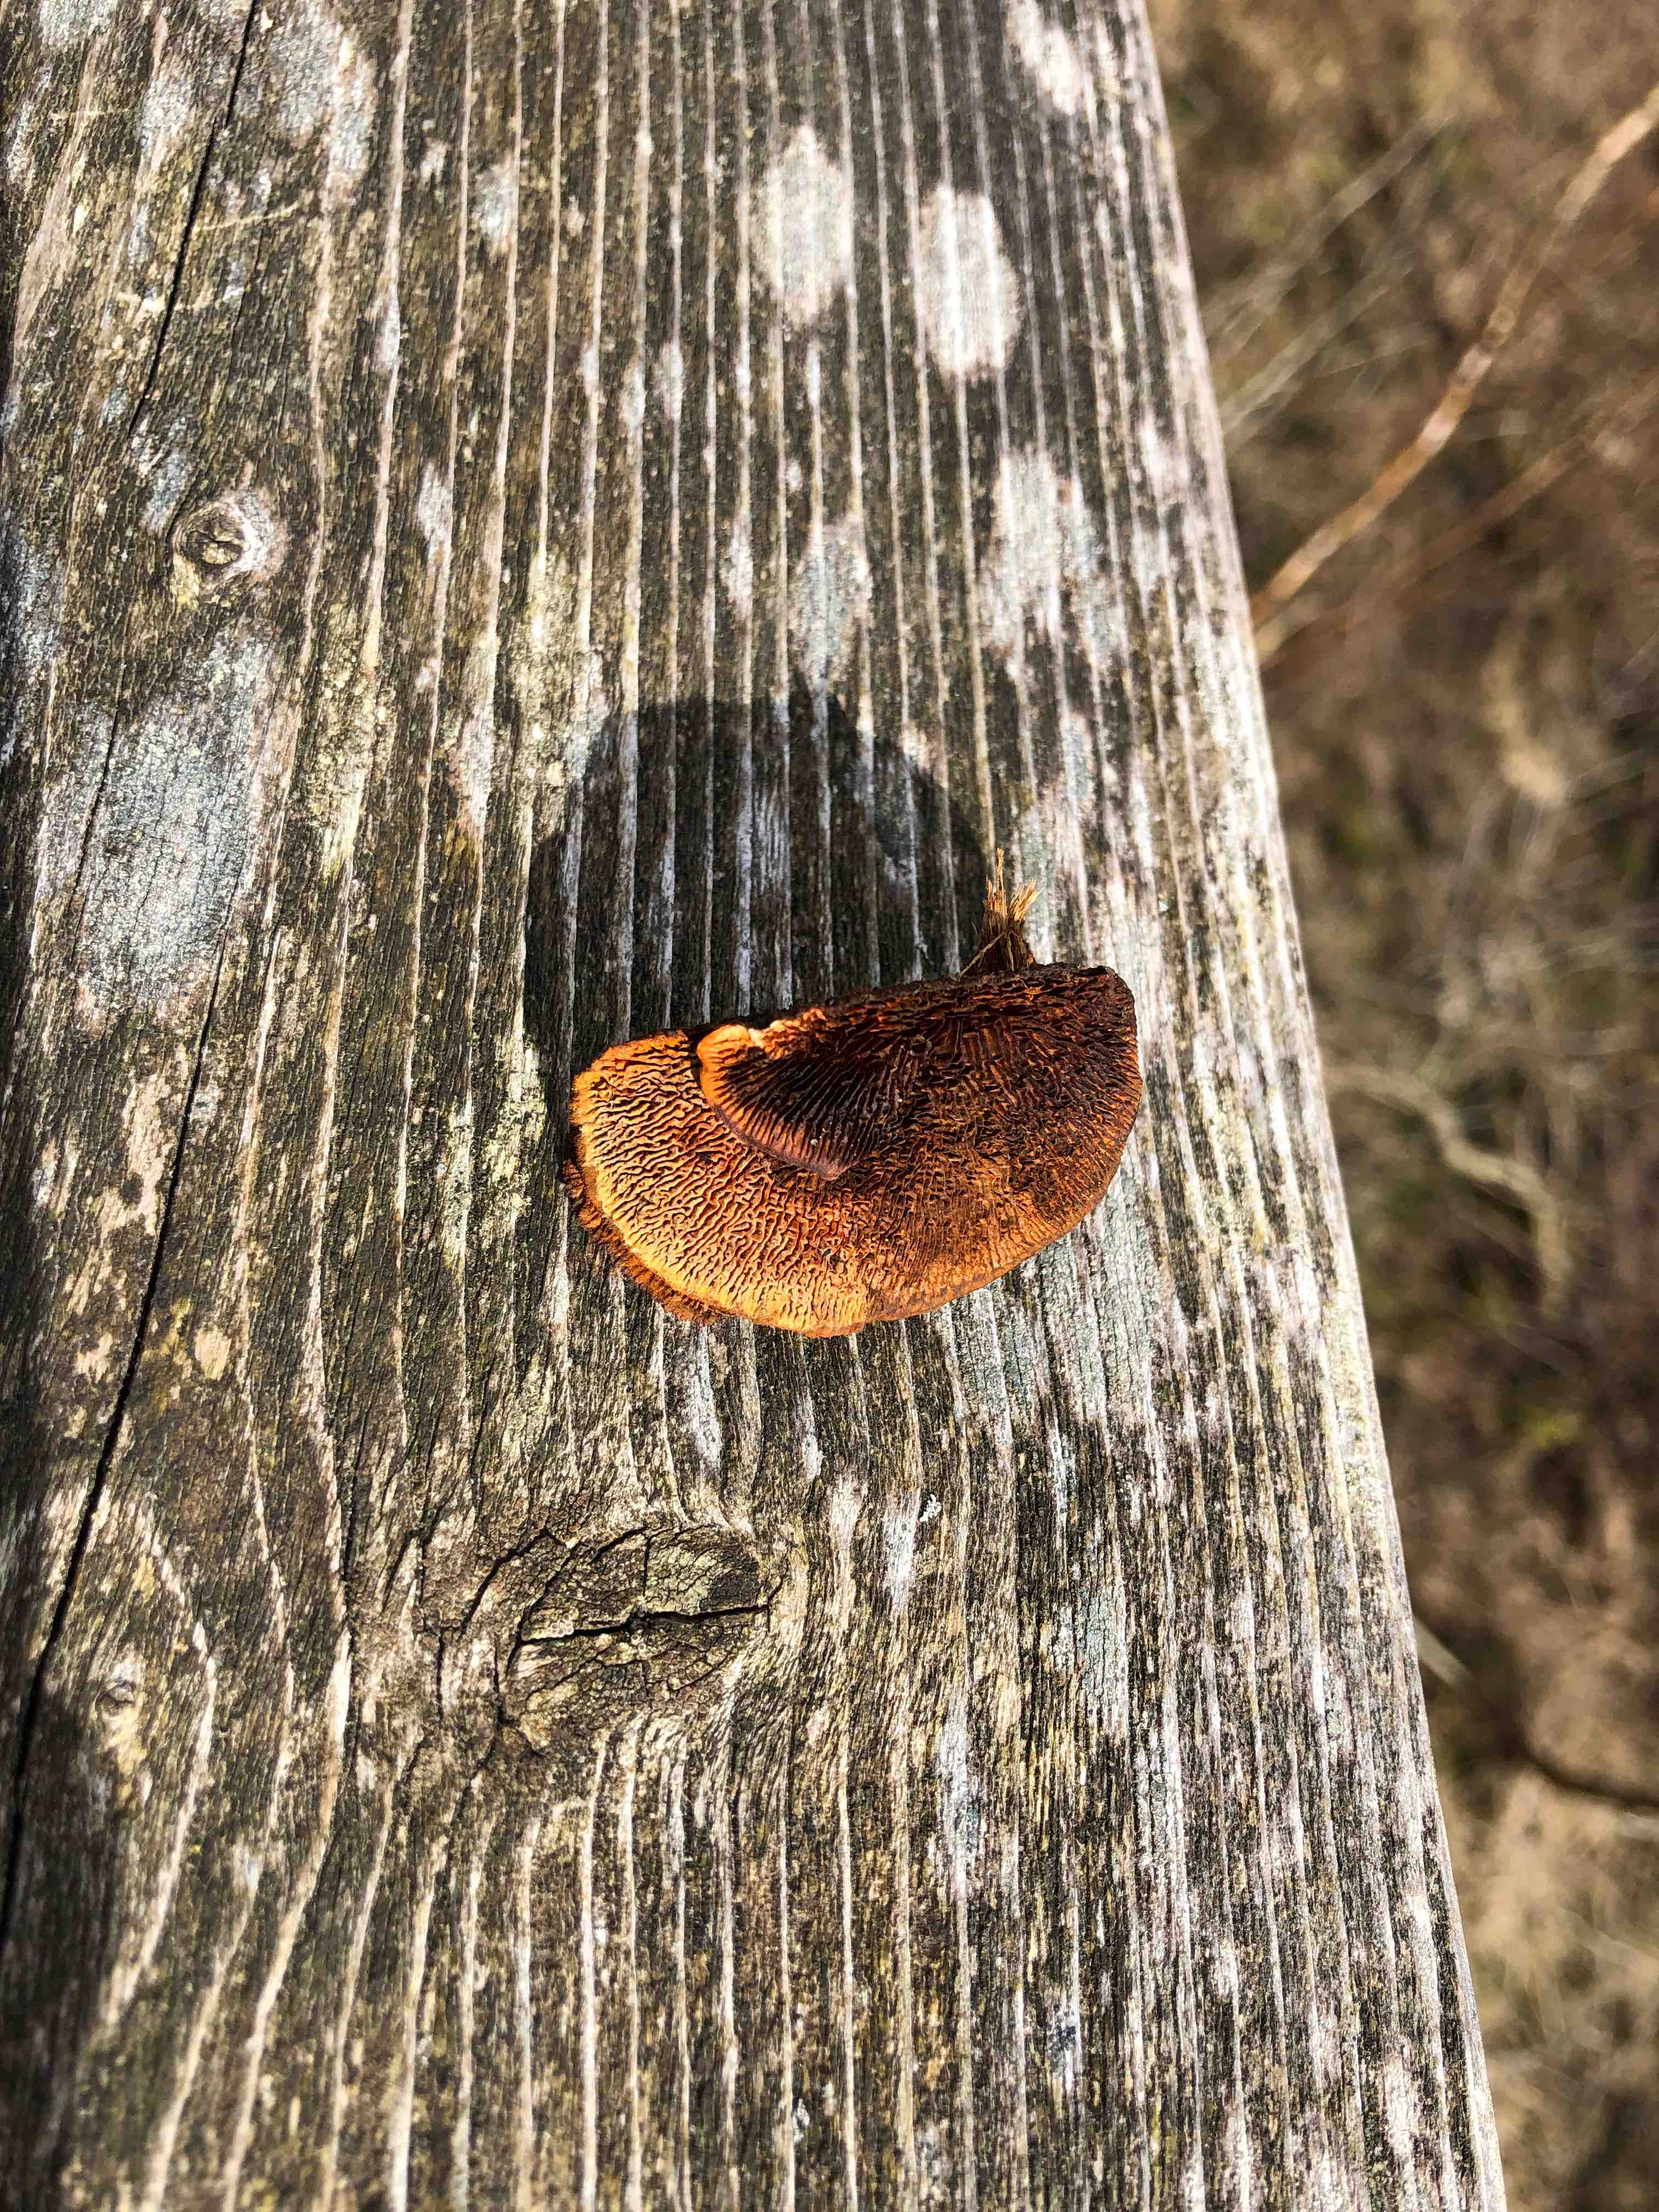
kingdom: Fungi
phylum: Basidiomycota
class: Agaricomycetes
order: Gloeophyllales
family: Gloeophyllaceae
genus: Gloeophyllum
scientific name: Gloeophyllum sepiarium
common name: fyrre-korkhat
